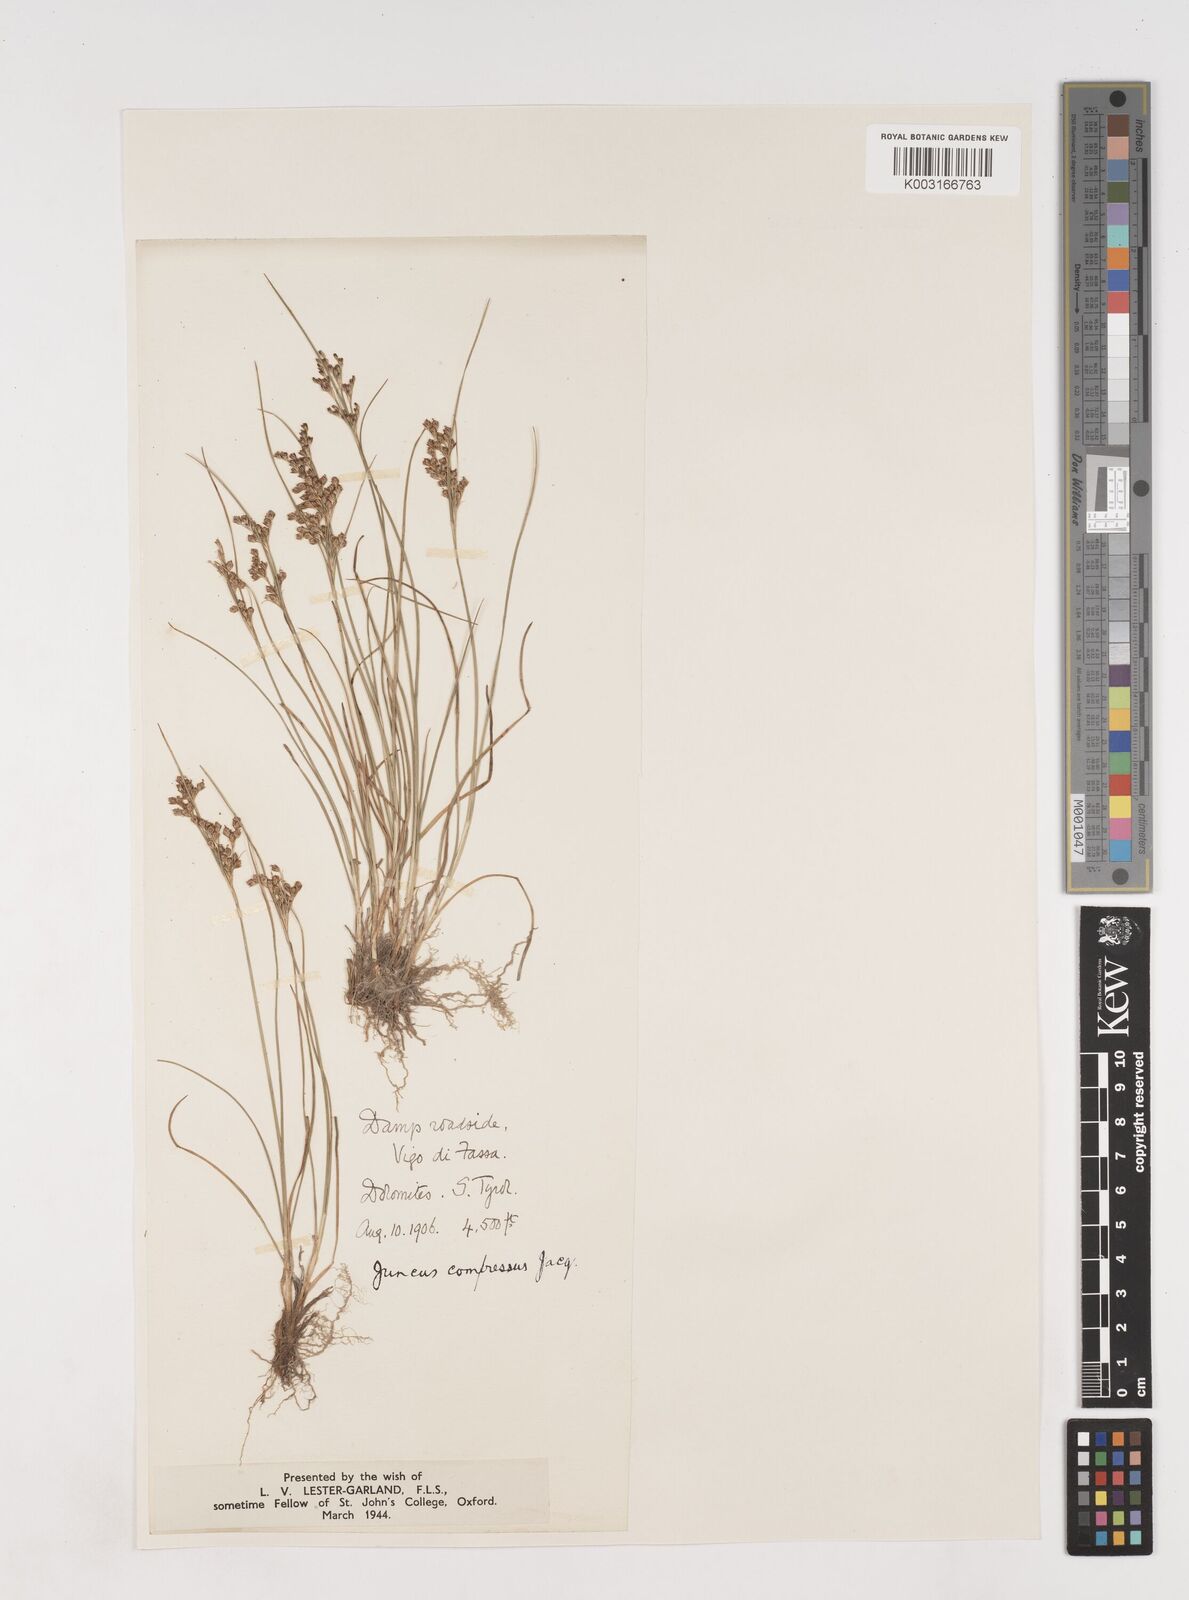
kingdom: Plantae
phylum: Tracheophyta
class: Liliopsida
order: Poales
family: Juncaceae
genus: Juncus
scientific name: Juncus
